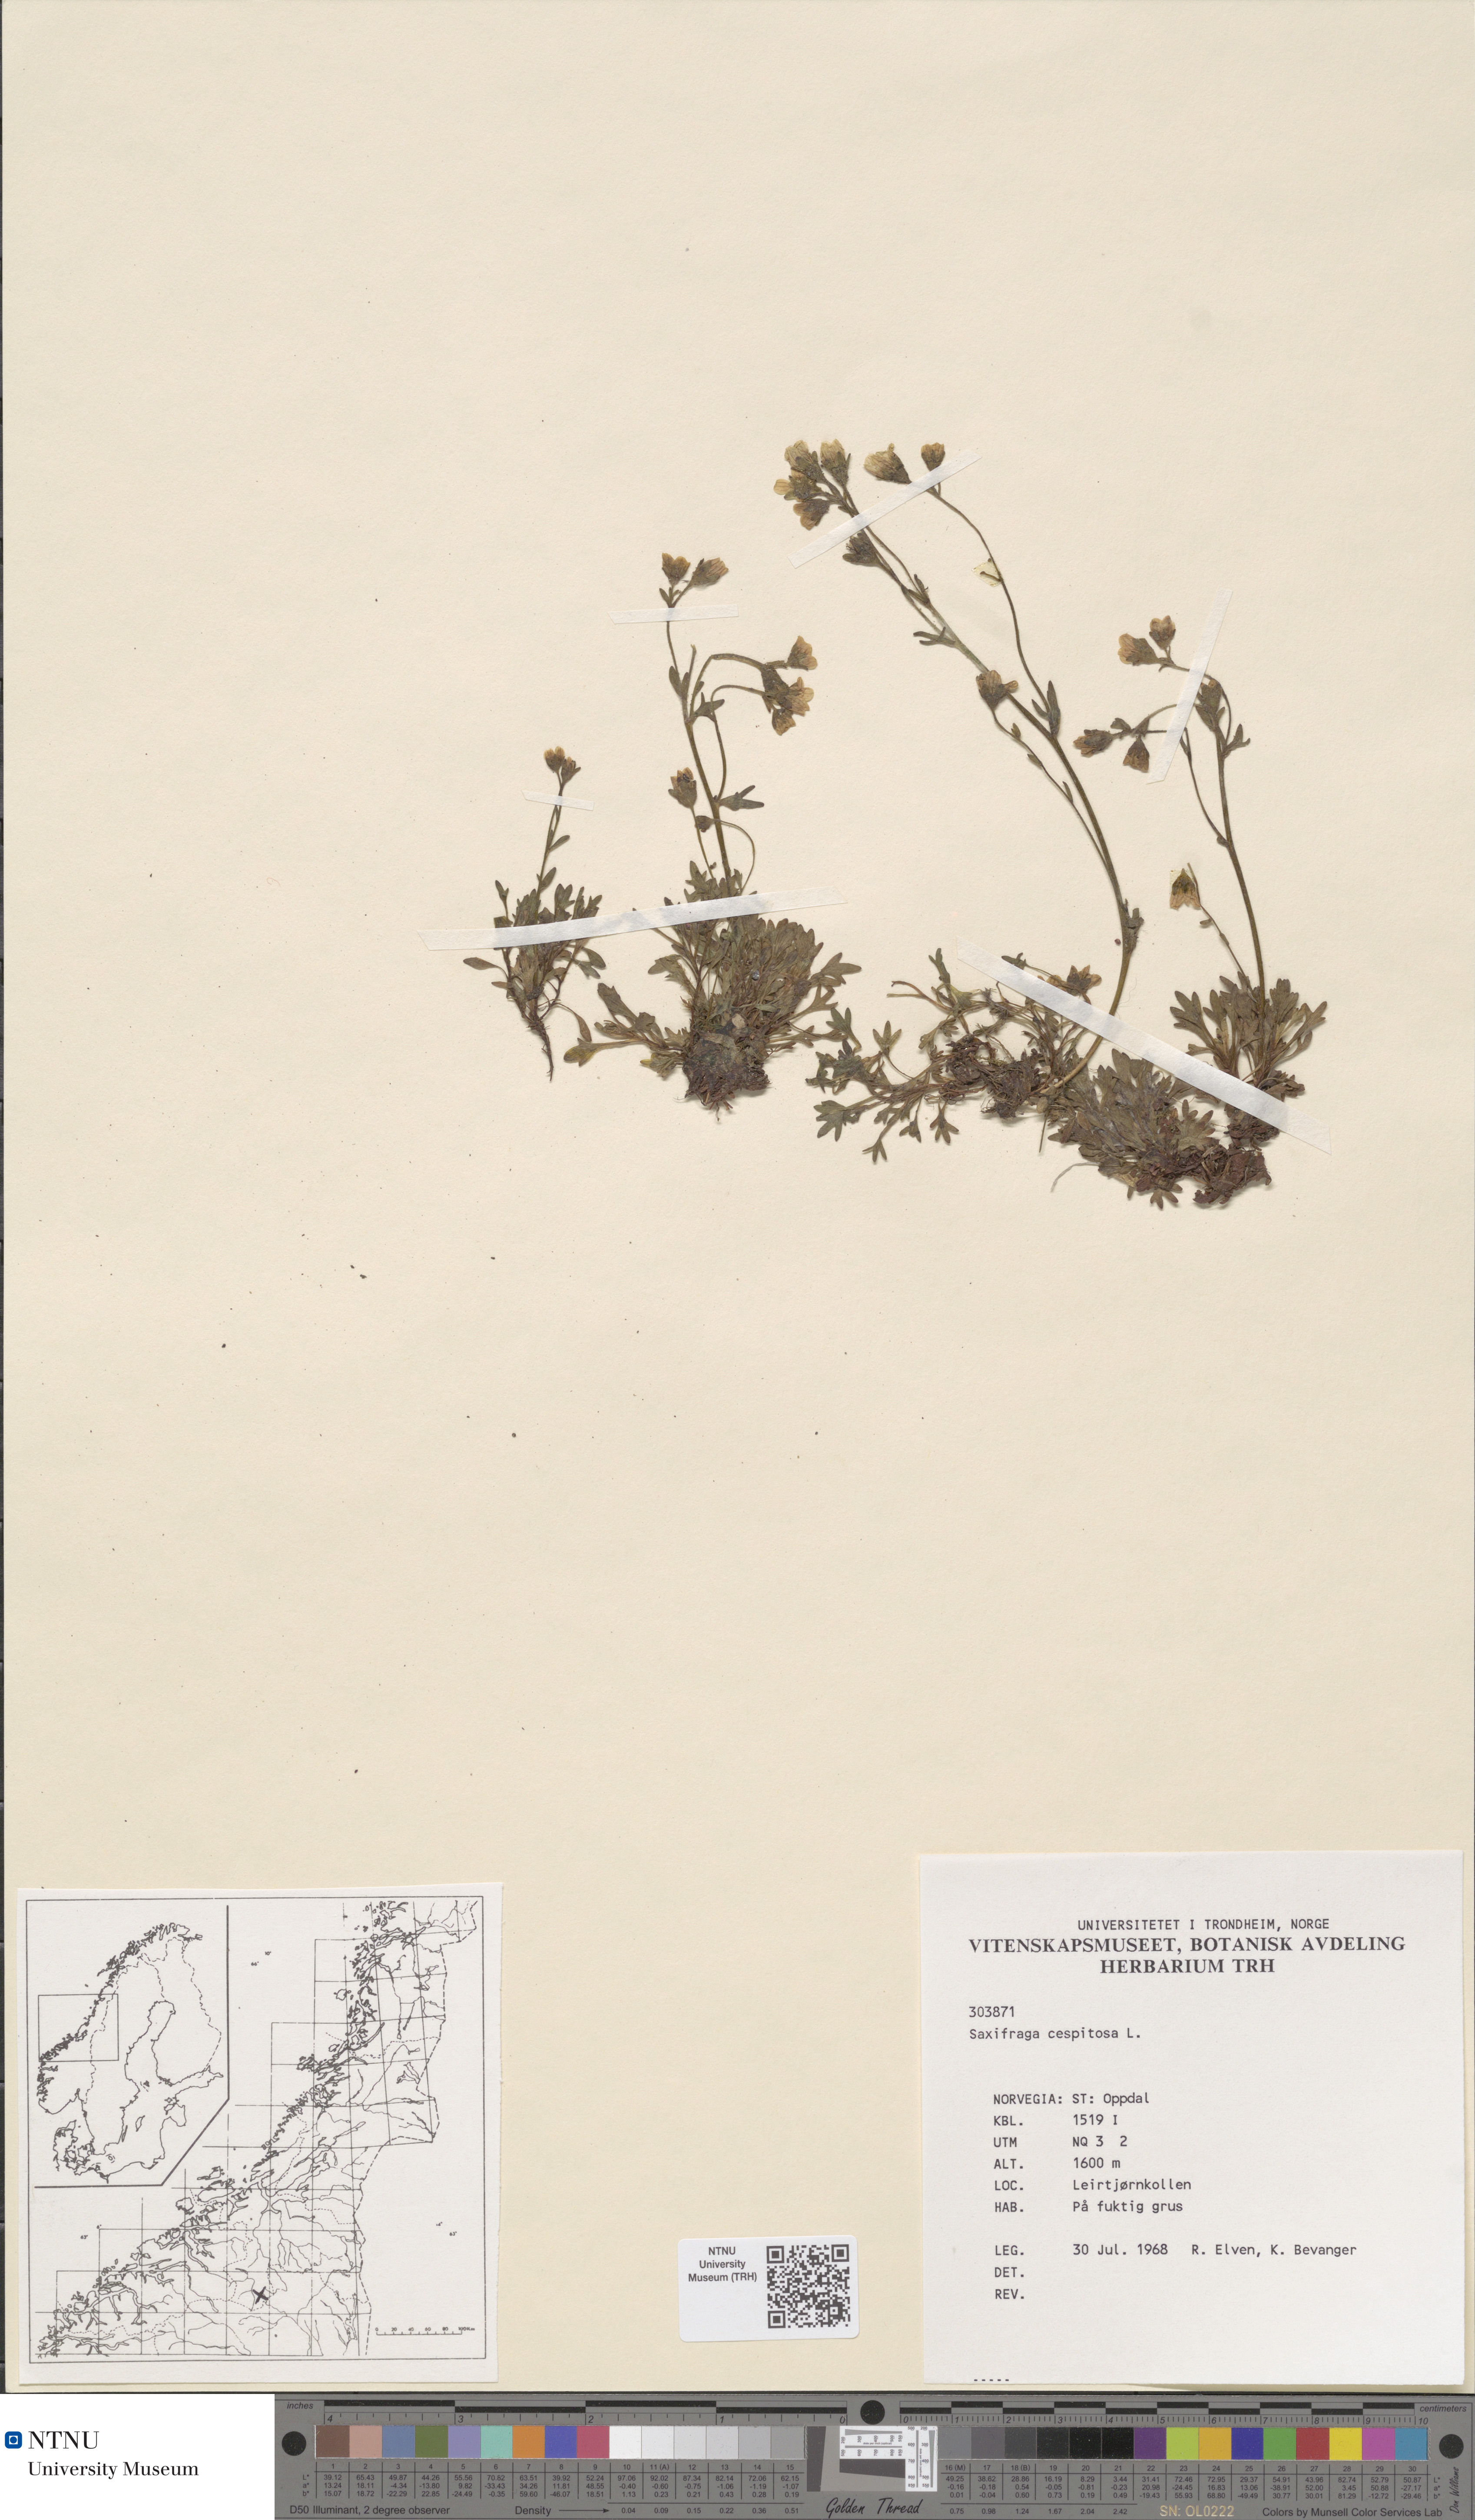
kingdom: Plantae
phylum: Tracheophyta
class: Magnoliopsida
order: Saxifragales
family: Saxifragaceae
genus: Saxifraga
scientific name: Saxifraga cespitosa
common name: Tufted saxifrage
